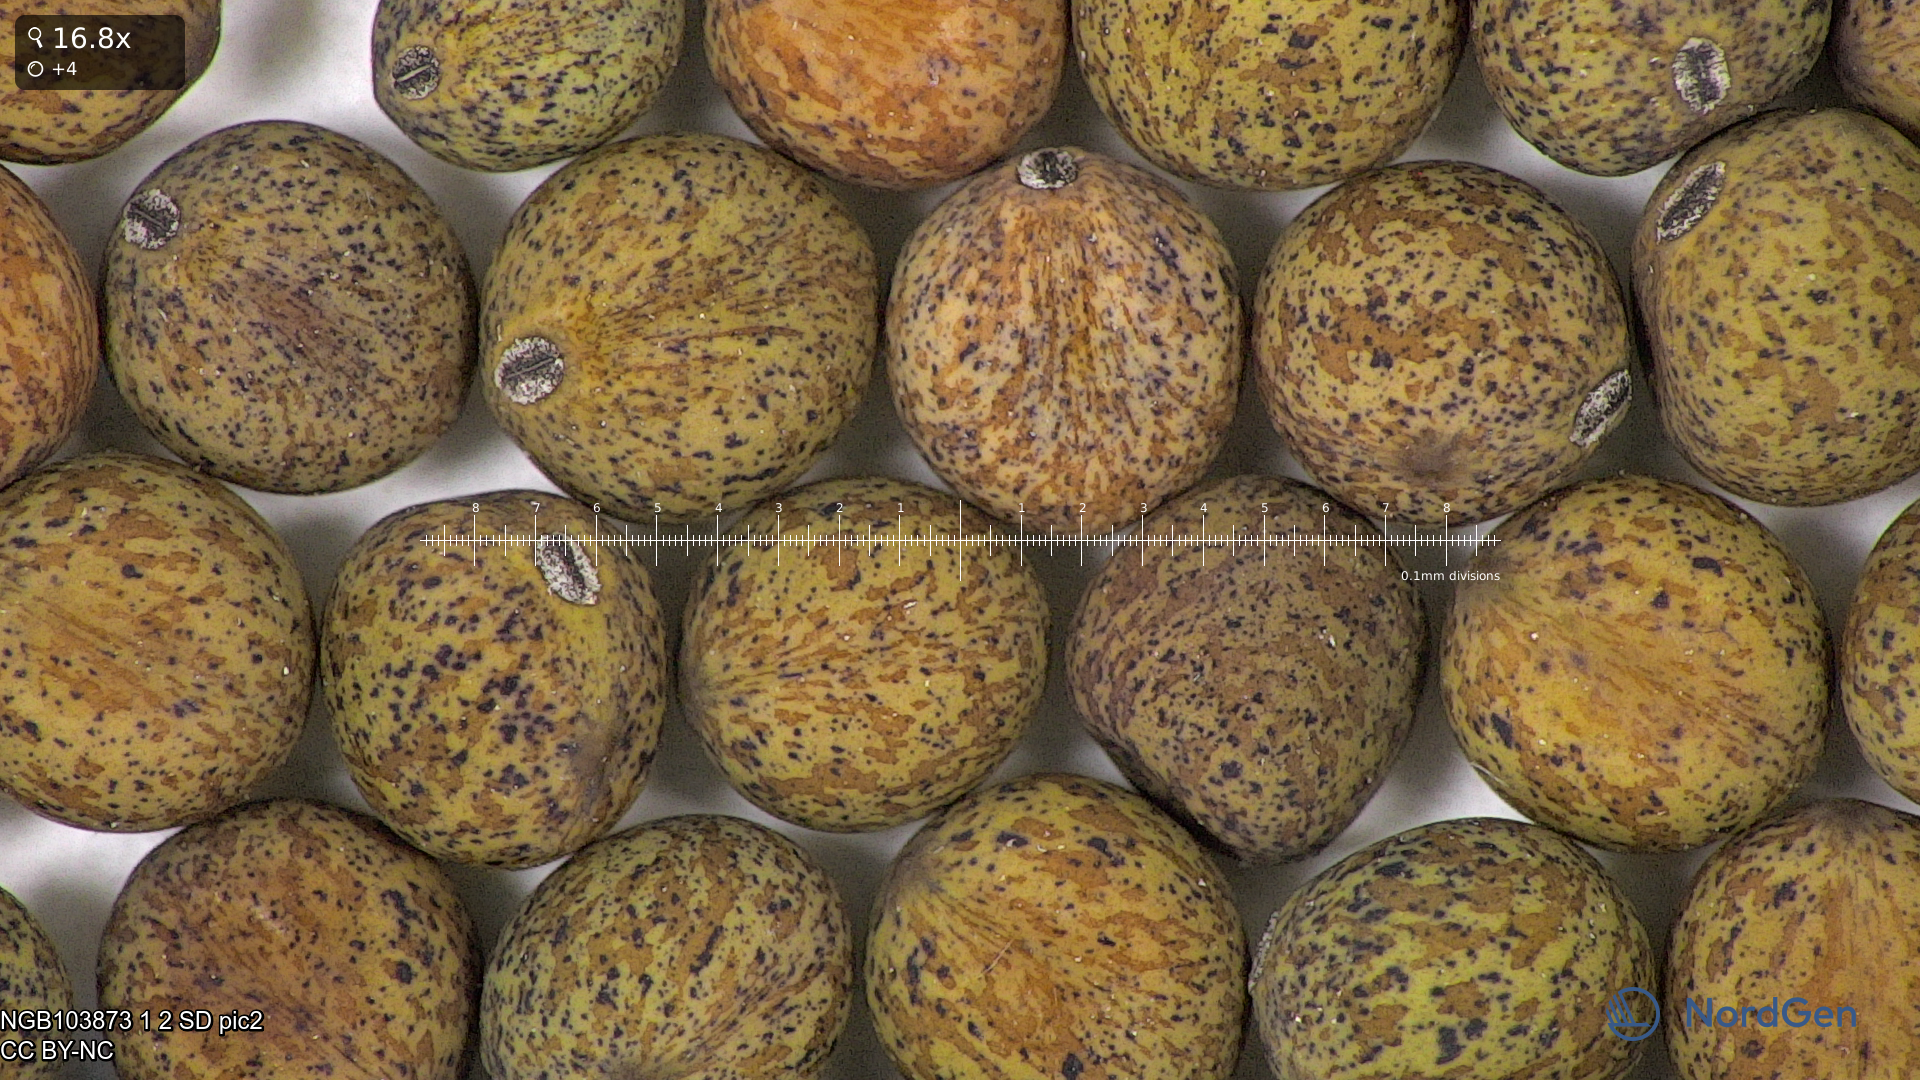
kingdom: Plantae
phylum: Tracheophyta
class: Magnoliopsida
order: Fabales
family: Fabaceae
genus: Lathyrus
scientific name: Lathyrus oleraceus
